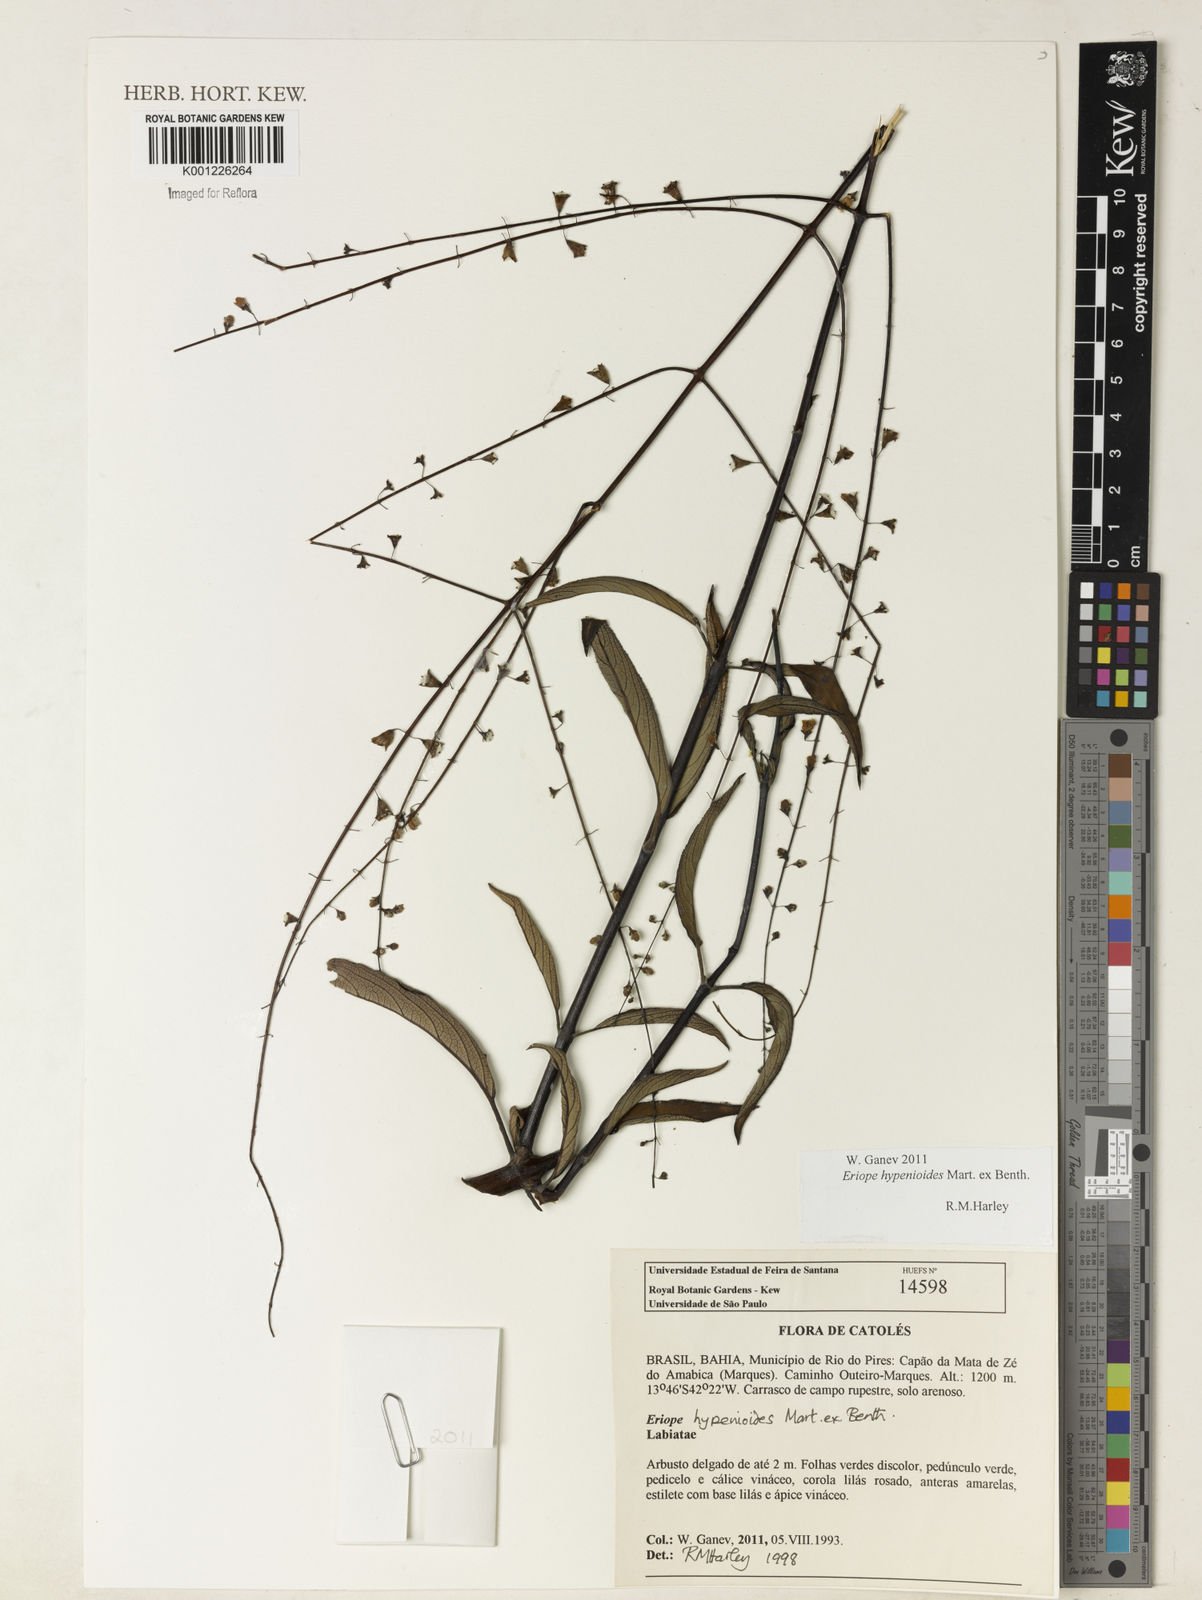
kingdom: Plantae
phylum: Tracheophyta
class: Magnoliopsida
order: Lamiales
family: Lamiaceae
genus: Eriope
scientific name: Eriope hypenioides
